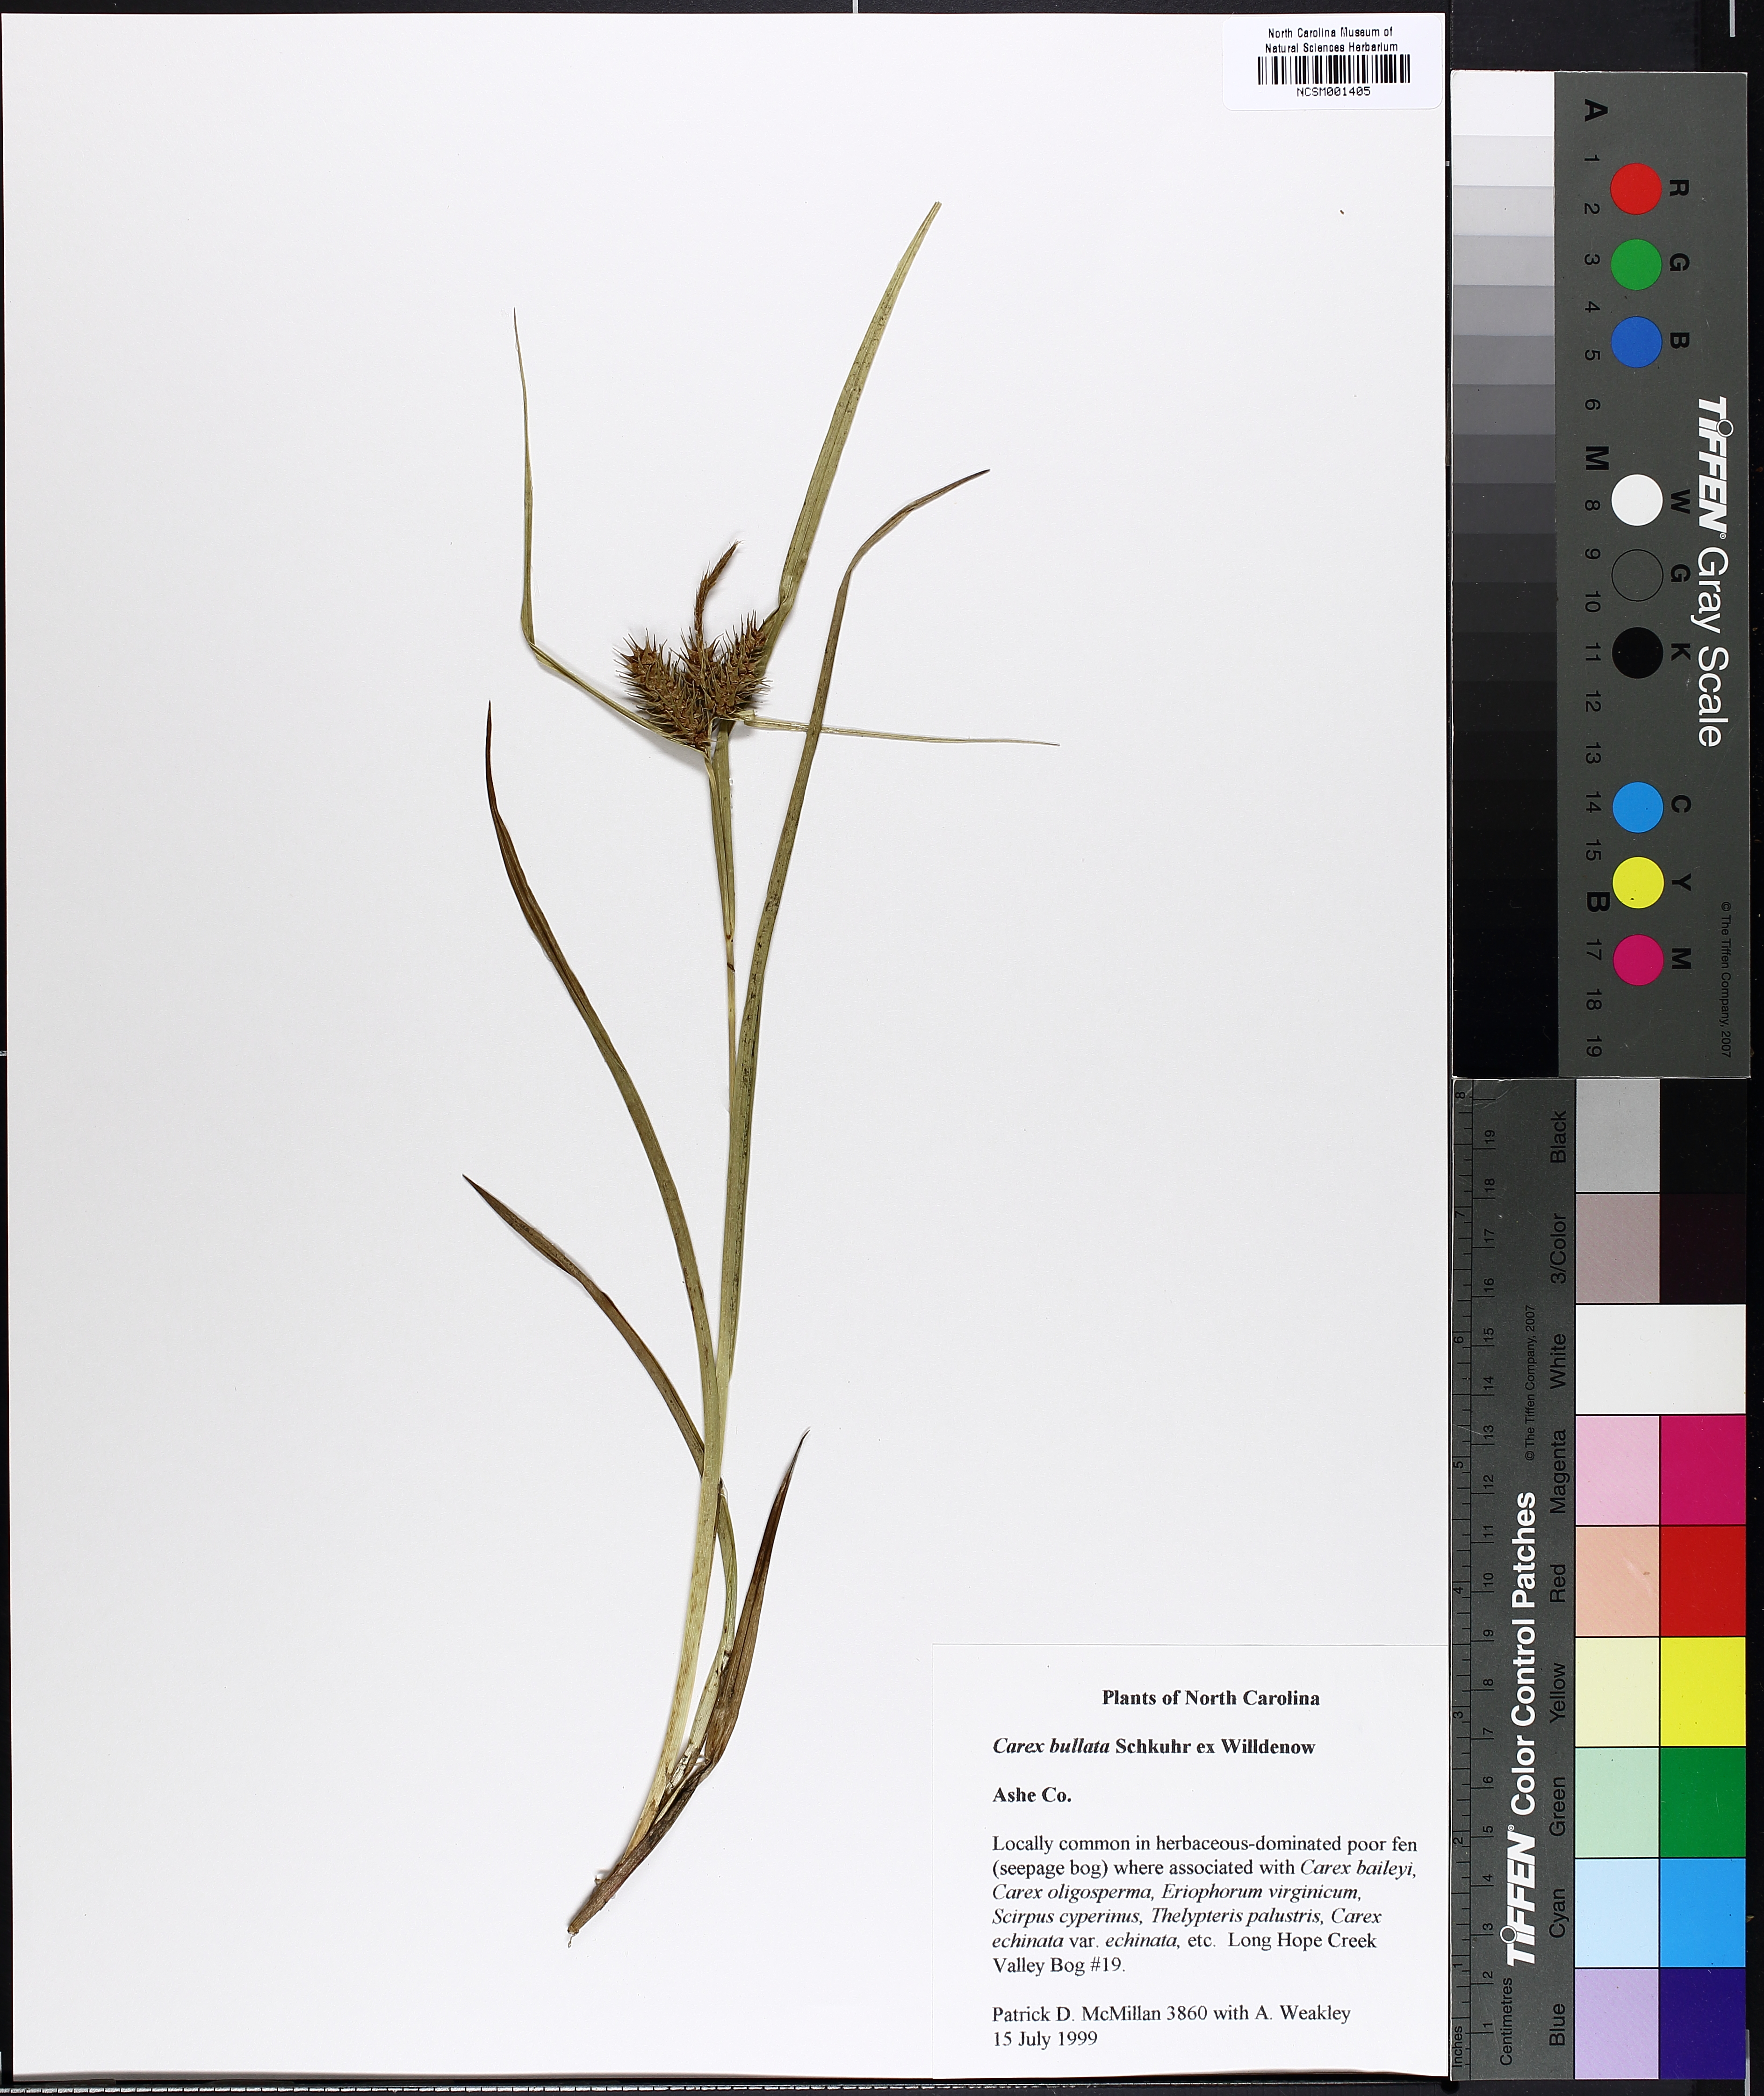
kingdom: Plantae
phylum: Tracheophyta
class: Liliopsida
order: Poales
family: Cyperaceae
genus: Carex
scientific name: Carex bullata
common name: Button sedge
